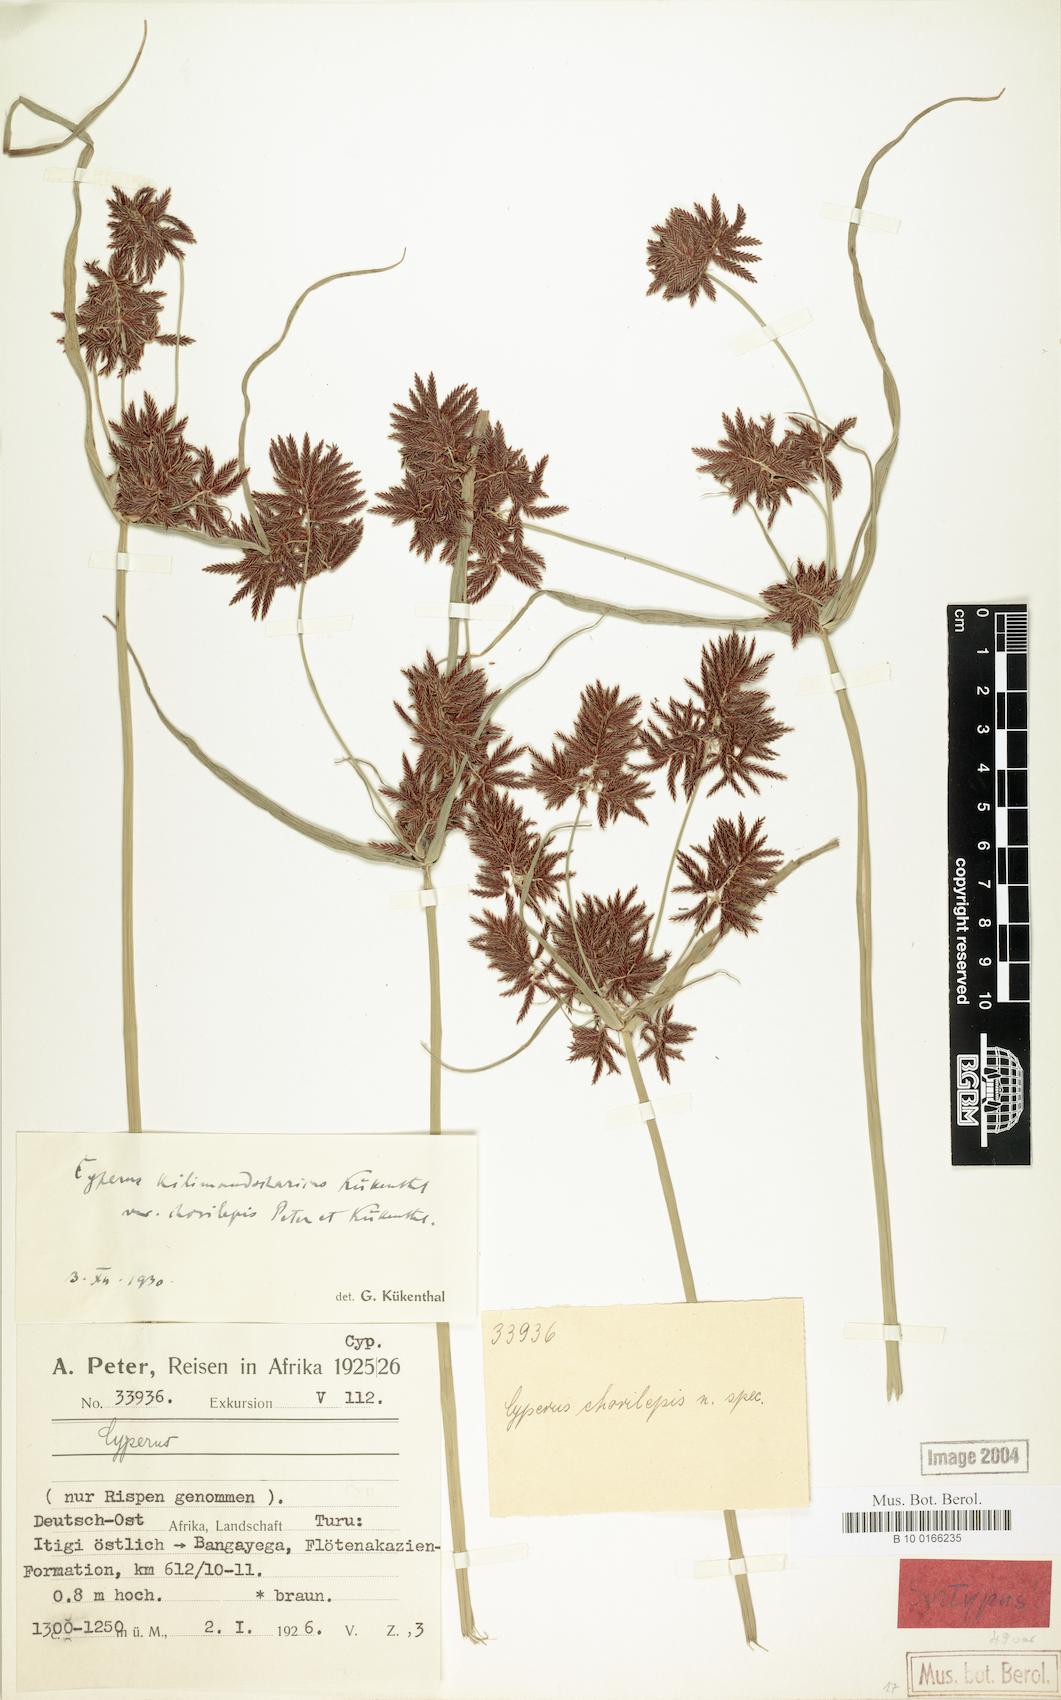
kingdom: Plantae
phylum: Tracheophyta
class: Liliopsida
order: Poales
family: Cyperaceae
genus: Cyperus
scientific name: Cyperus kilimandscharicus
